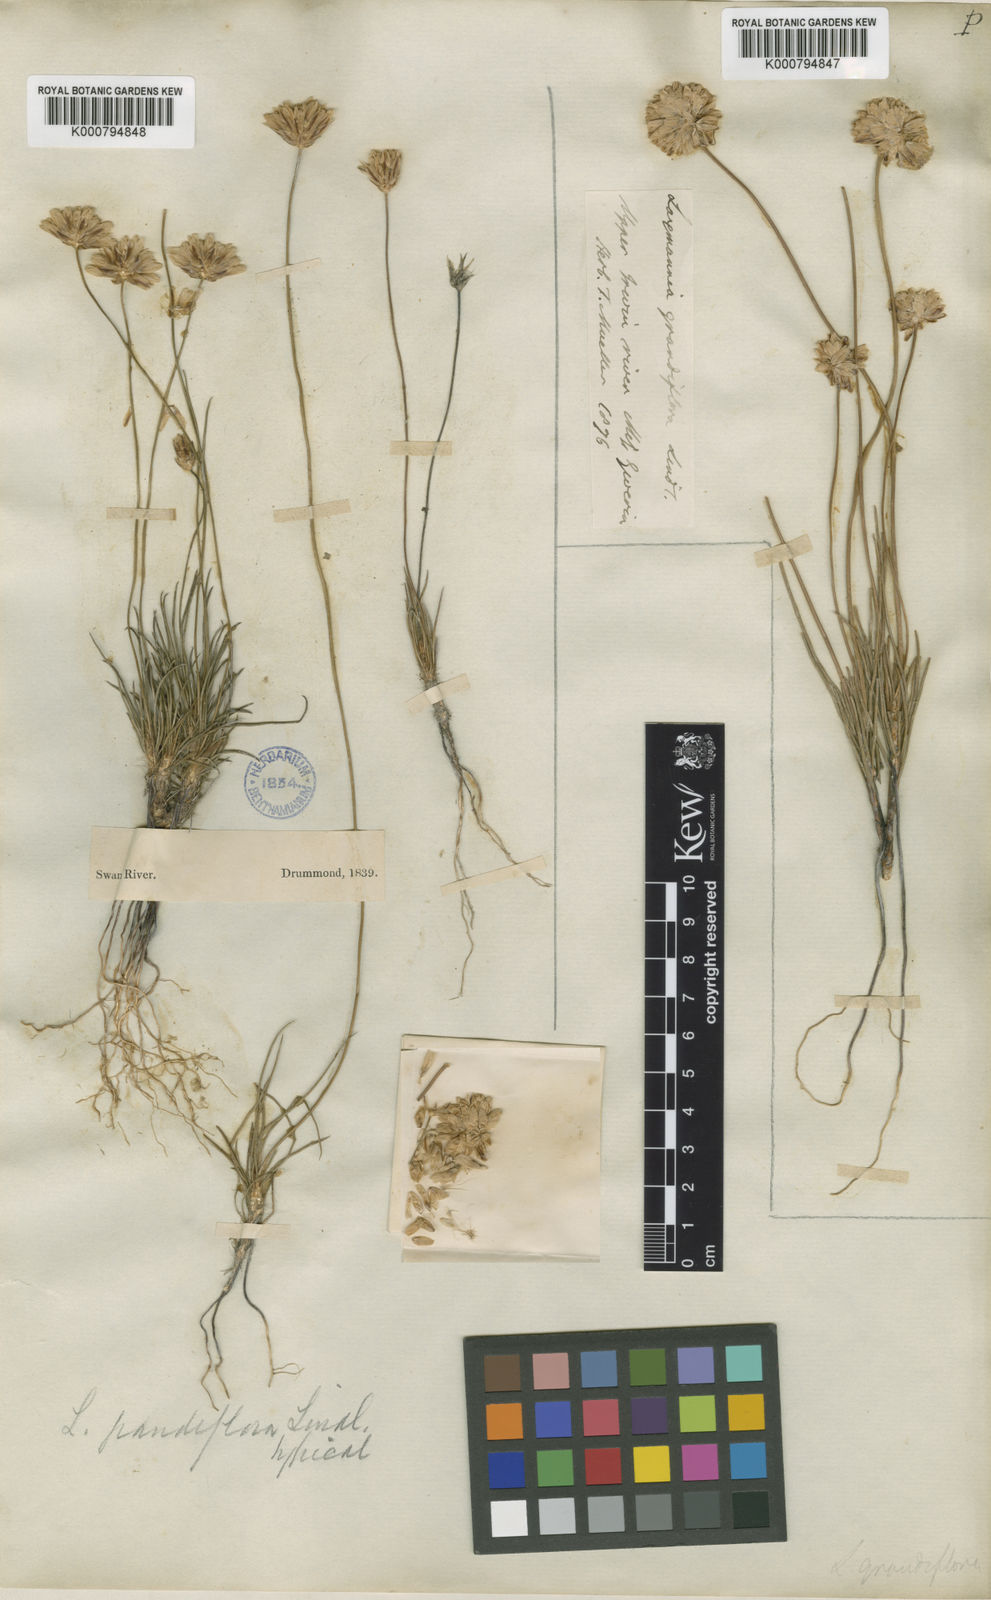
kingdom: Plantae
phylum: Tracheophyta
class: Liliopsida
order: Asparagales
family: Asparagaceae
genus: Laxmannia
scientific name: Laxmannia grandiflora
